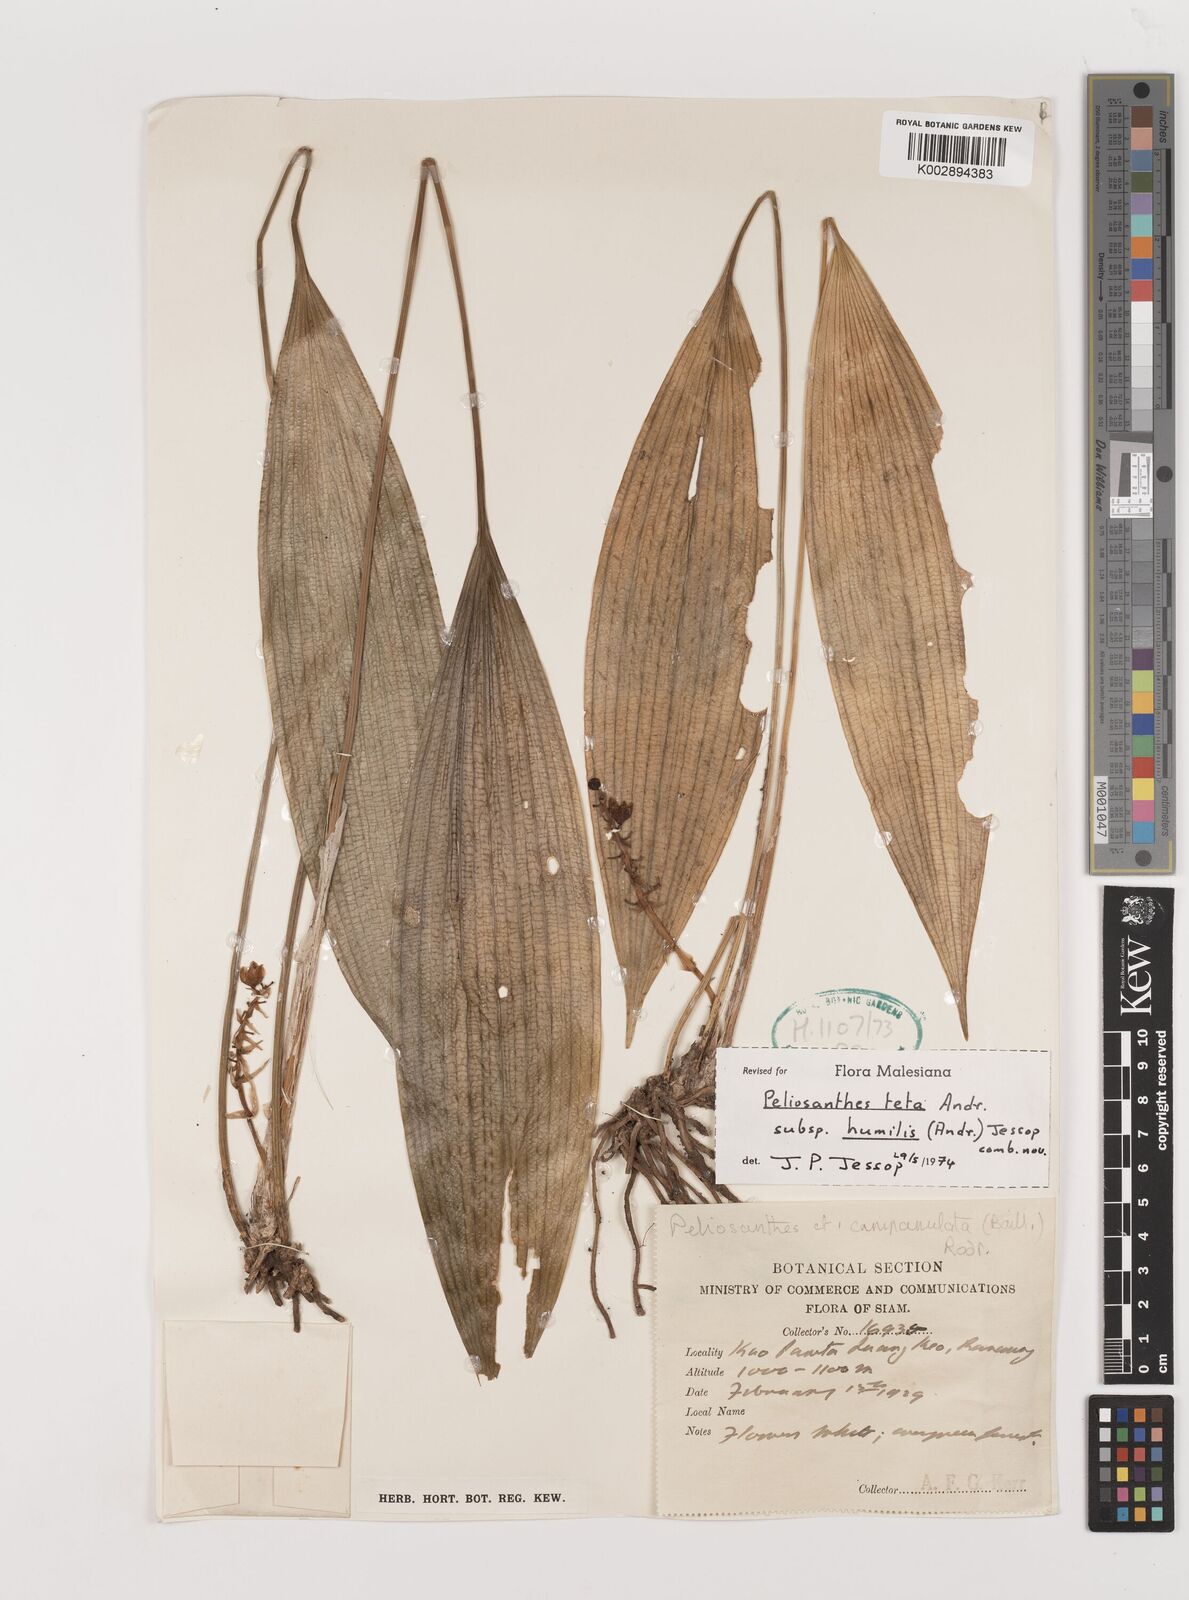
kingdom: Plantae
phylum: Tracheophyta
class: Liliopsida
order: Asparagales
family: Asparagaceae
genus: Peliosanthes
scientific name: Peliosanthes teta
